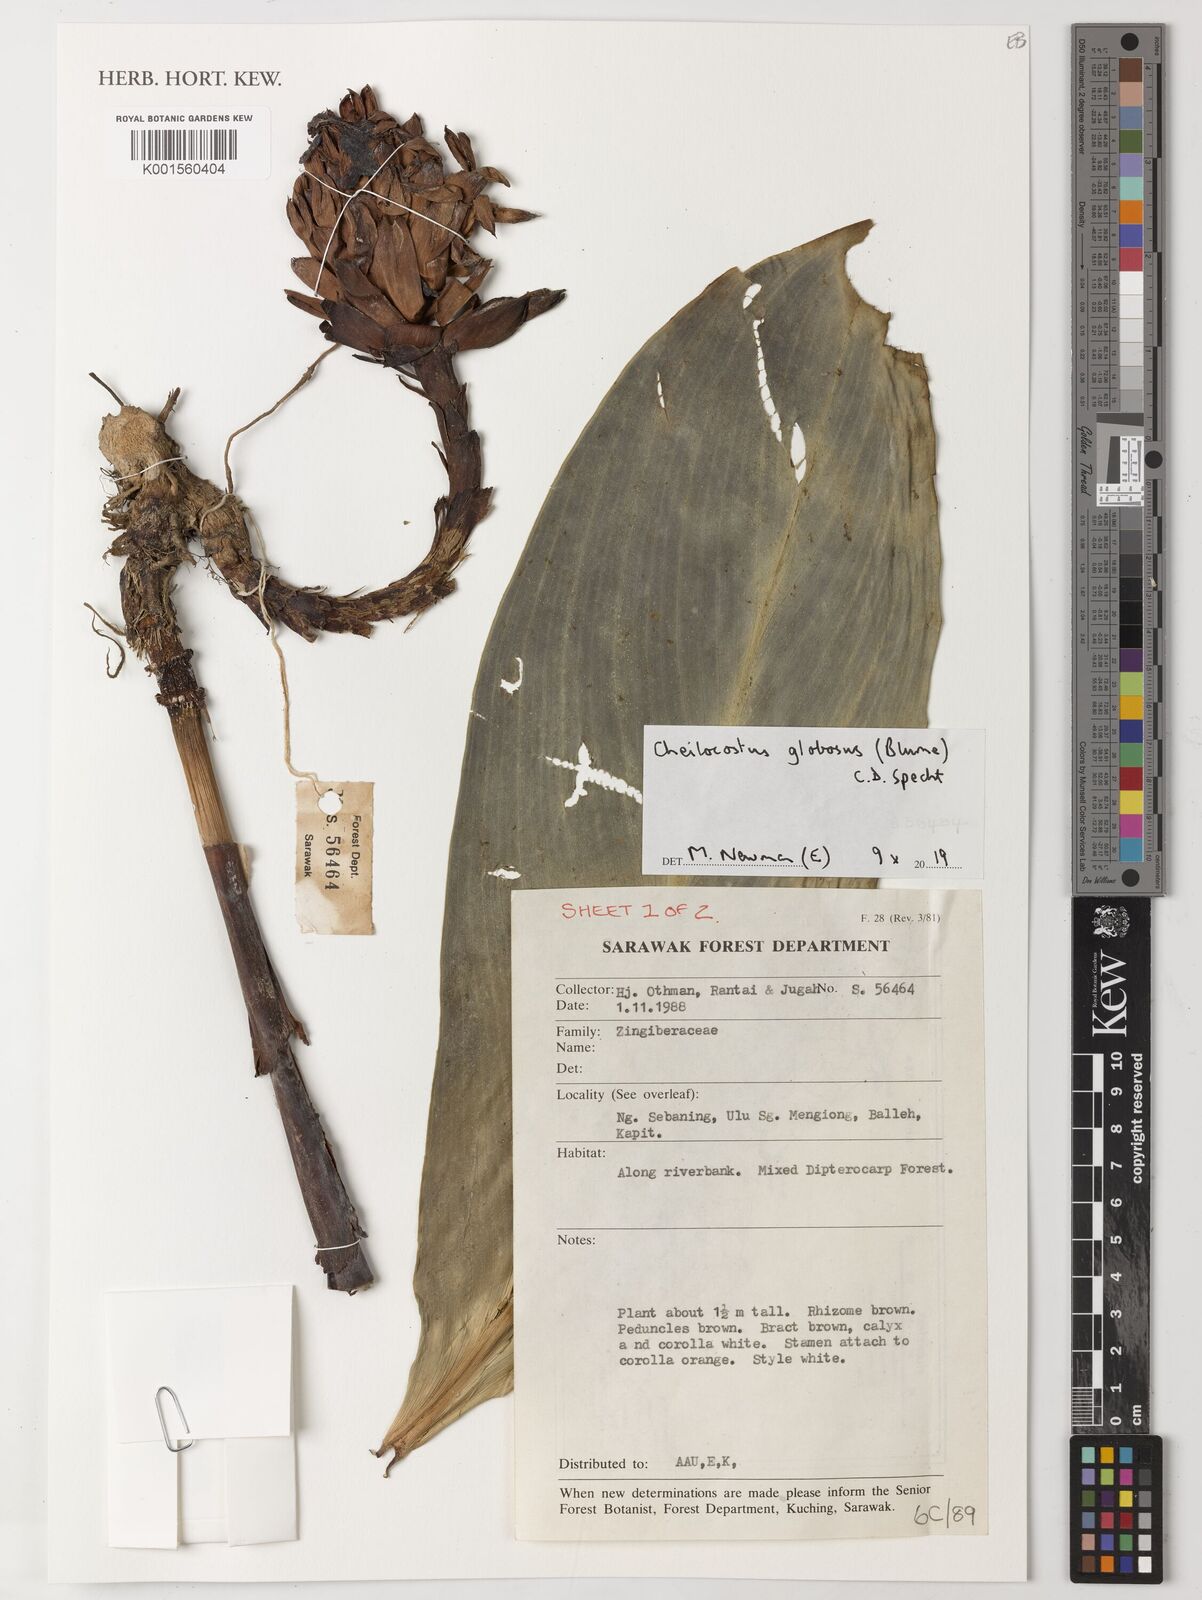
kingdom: Plantae
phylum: Tracheophyta
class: Liliopsida
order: Zingiberales
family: Costaceae
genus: Hellenia
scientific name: Hellenia globosa
